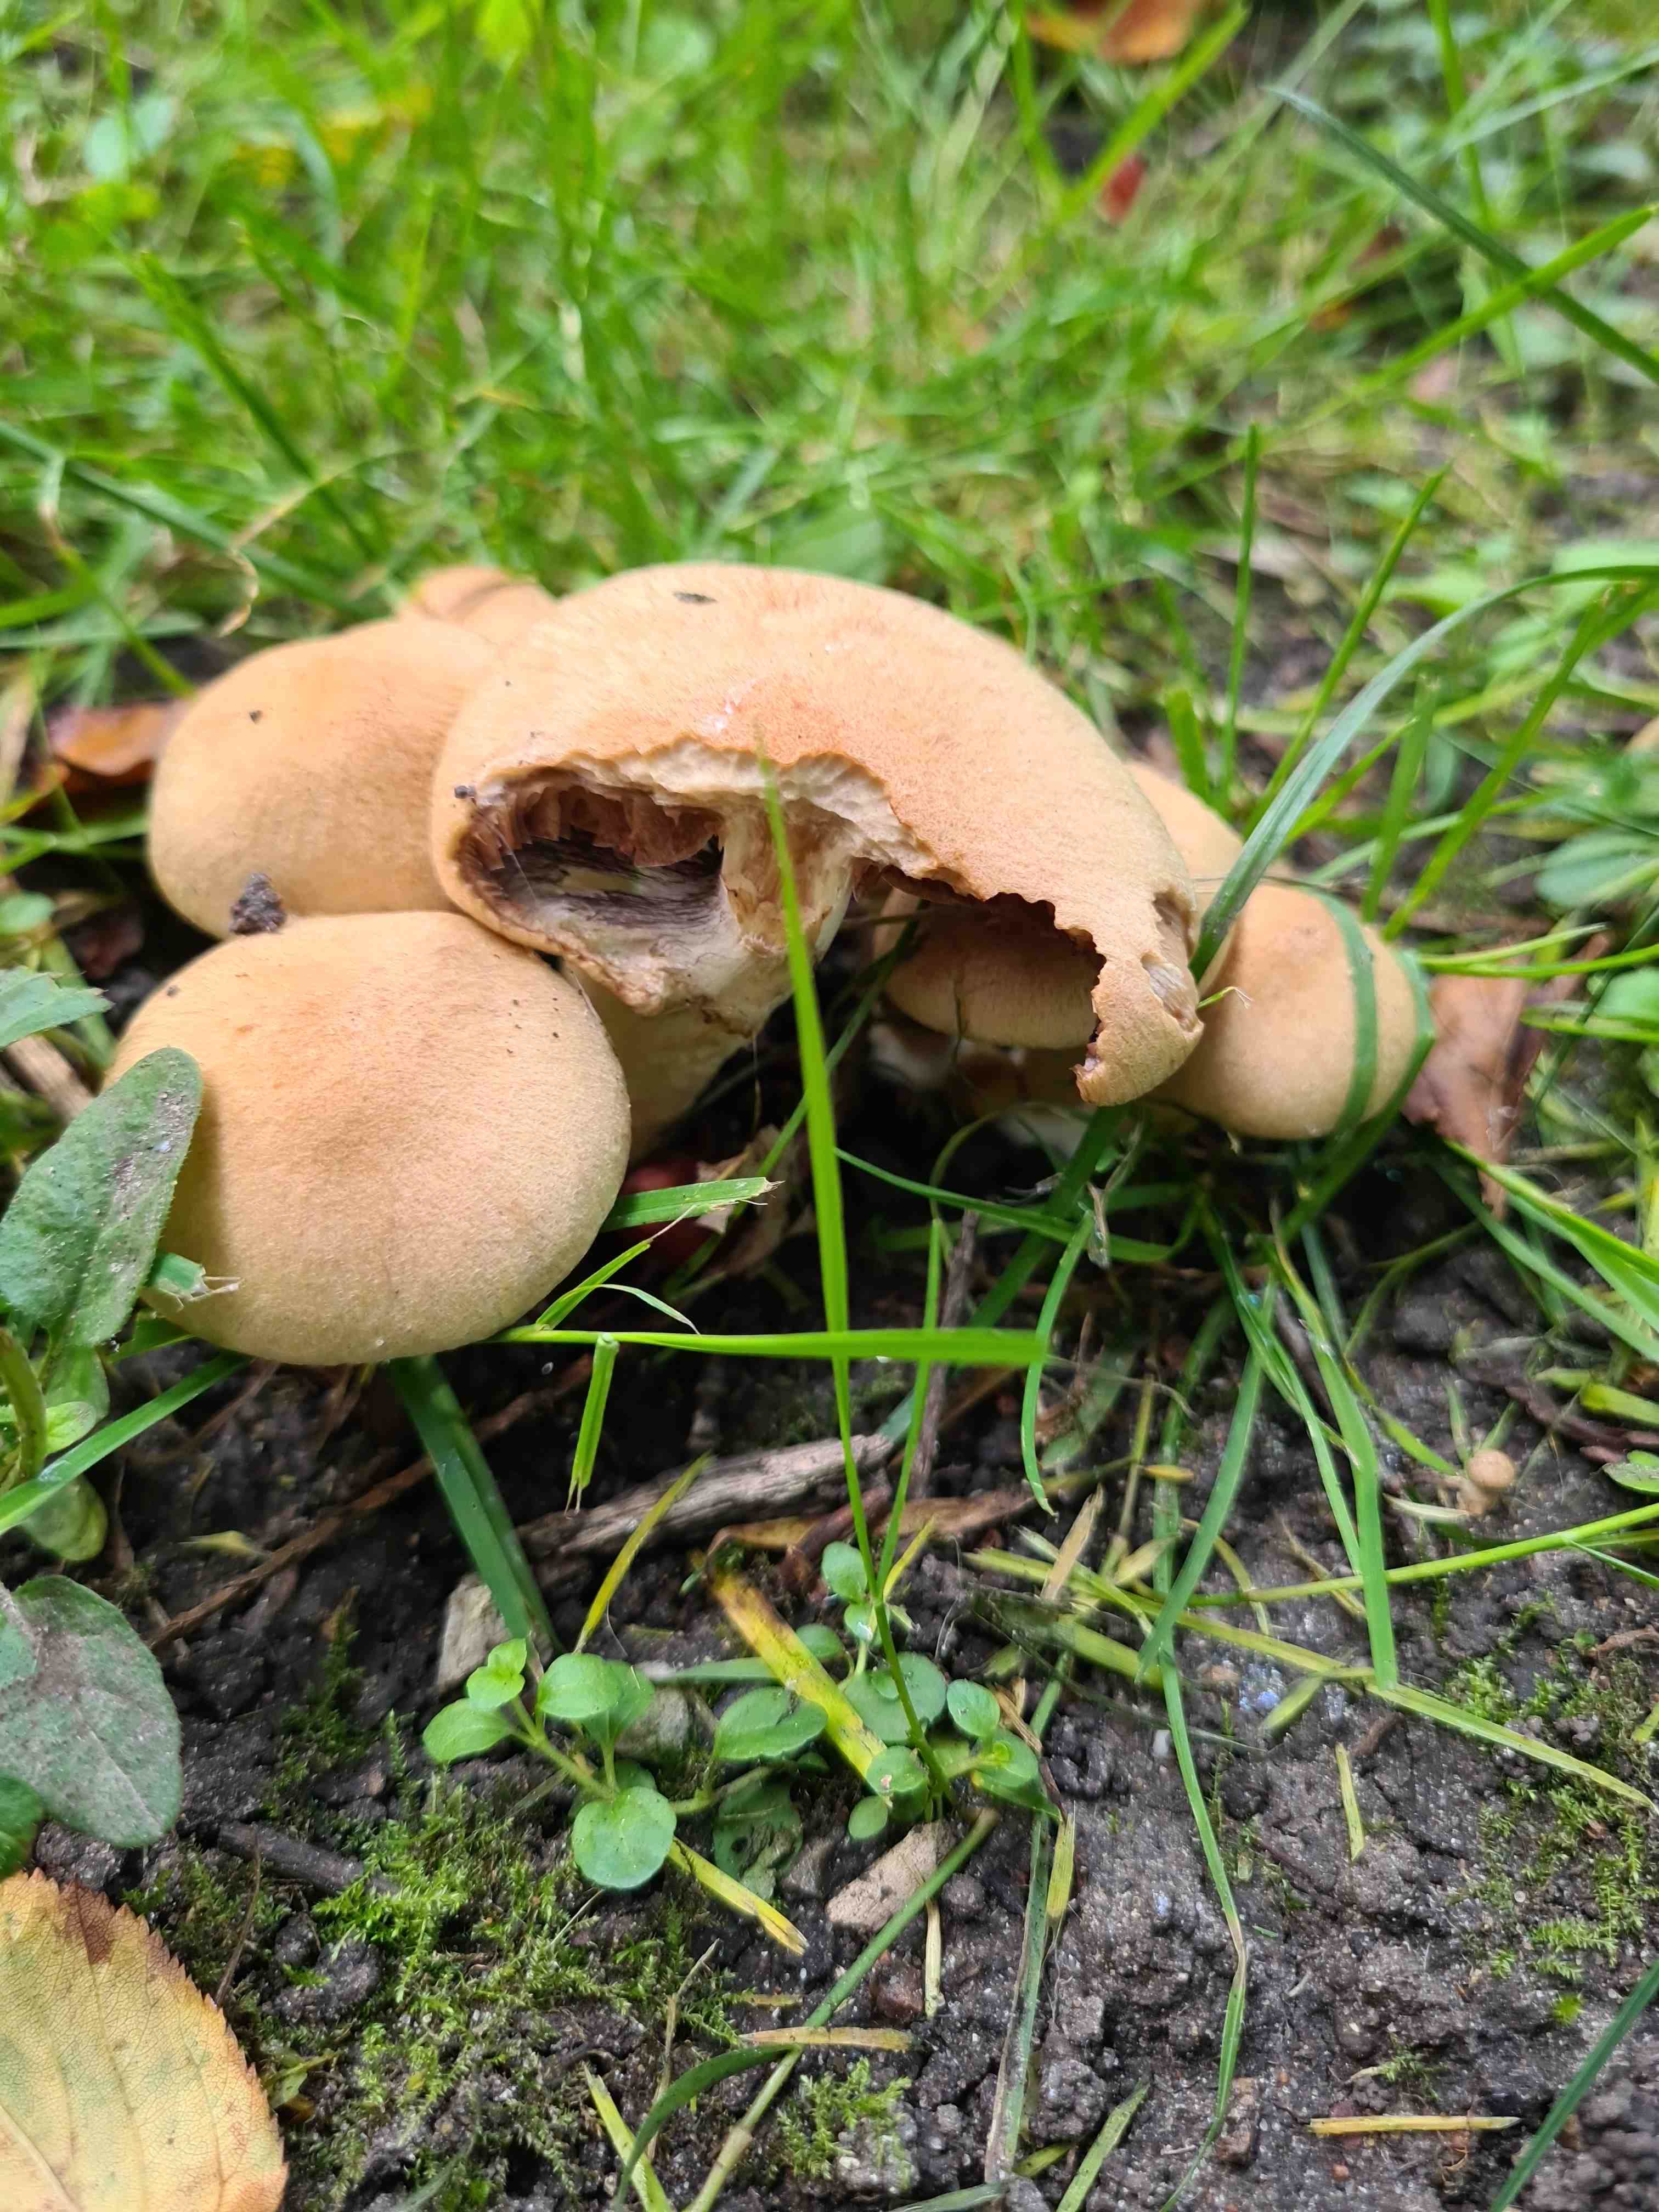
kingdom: Fungi
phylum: Basidiomycota
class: Agaricomycetes
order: Agaricales
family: Psathyrellaceae
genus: Lacrymaria
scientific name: Lacrymaria lacrymabunda
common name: grædende mørkhat
